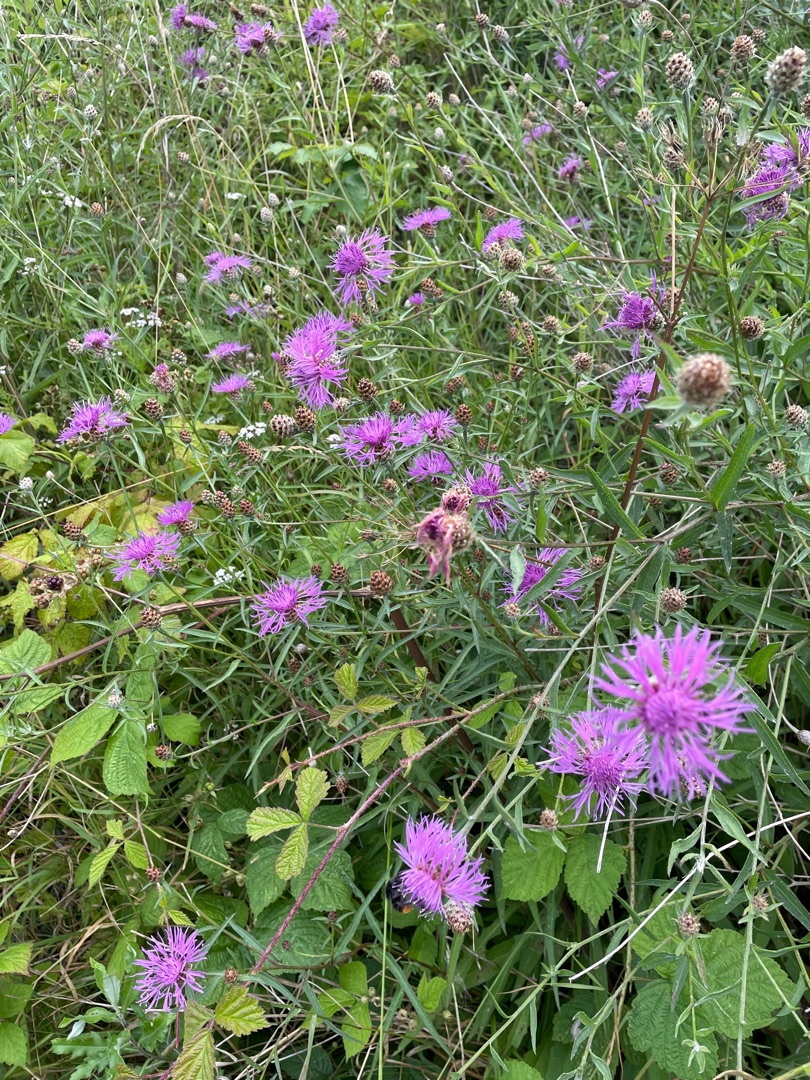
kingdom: Plantae
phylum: Tracheophyta
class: Magnoliopsida
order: Asterales
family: Asteraceae
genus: Centaurea
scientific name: Centaurea jacea
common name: Almindelig knopurt
